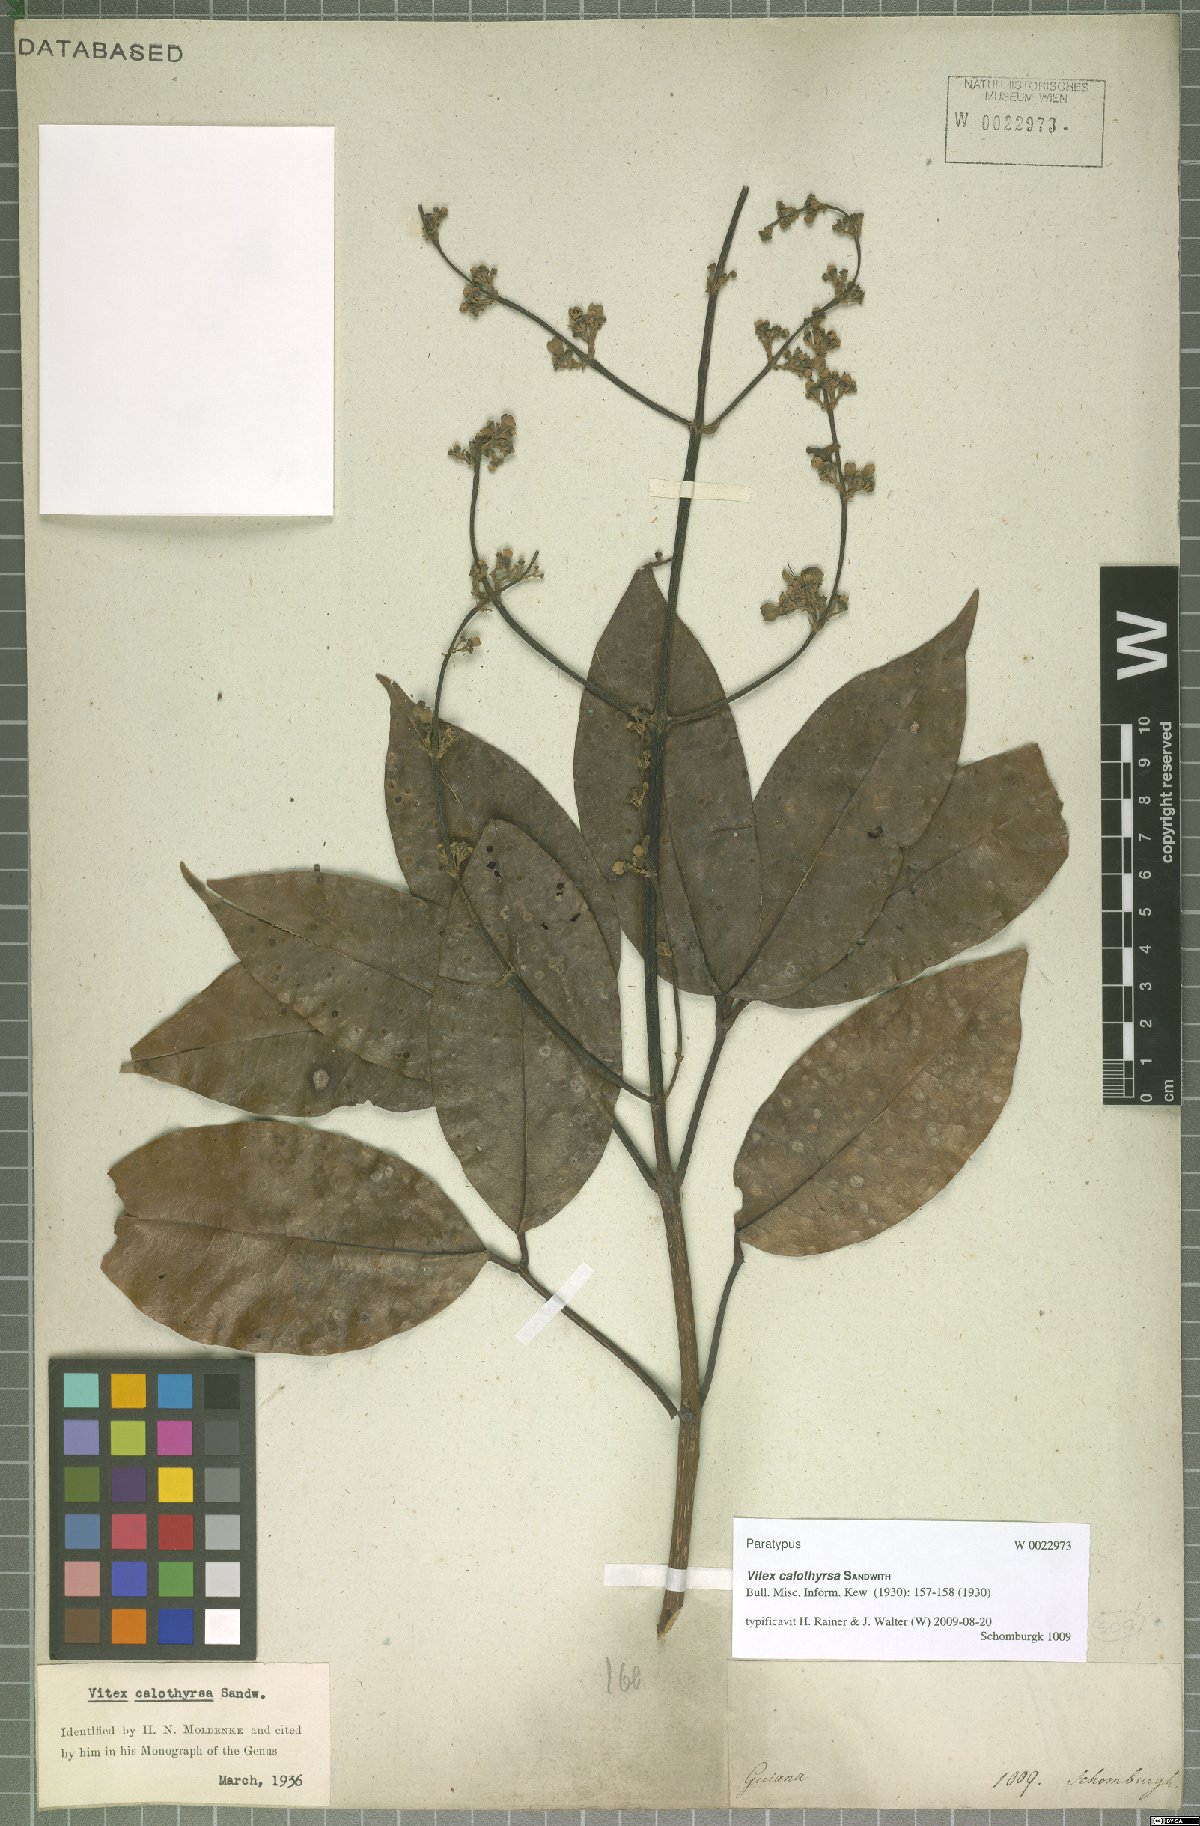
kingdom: Plantae
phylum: Tracheophyta
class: Magnoliopsida
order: Lamiales
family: Lamiaceae
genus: Vitex
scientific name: Vitex calothyrsa
